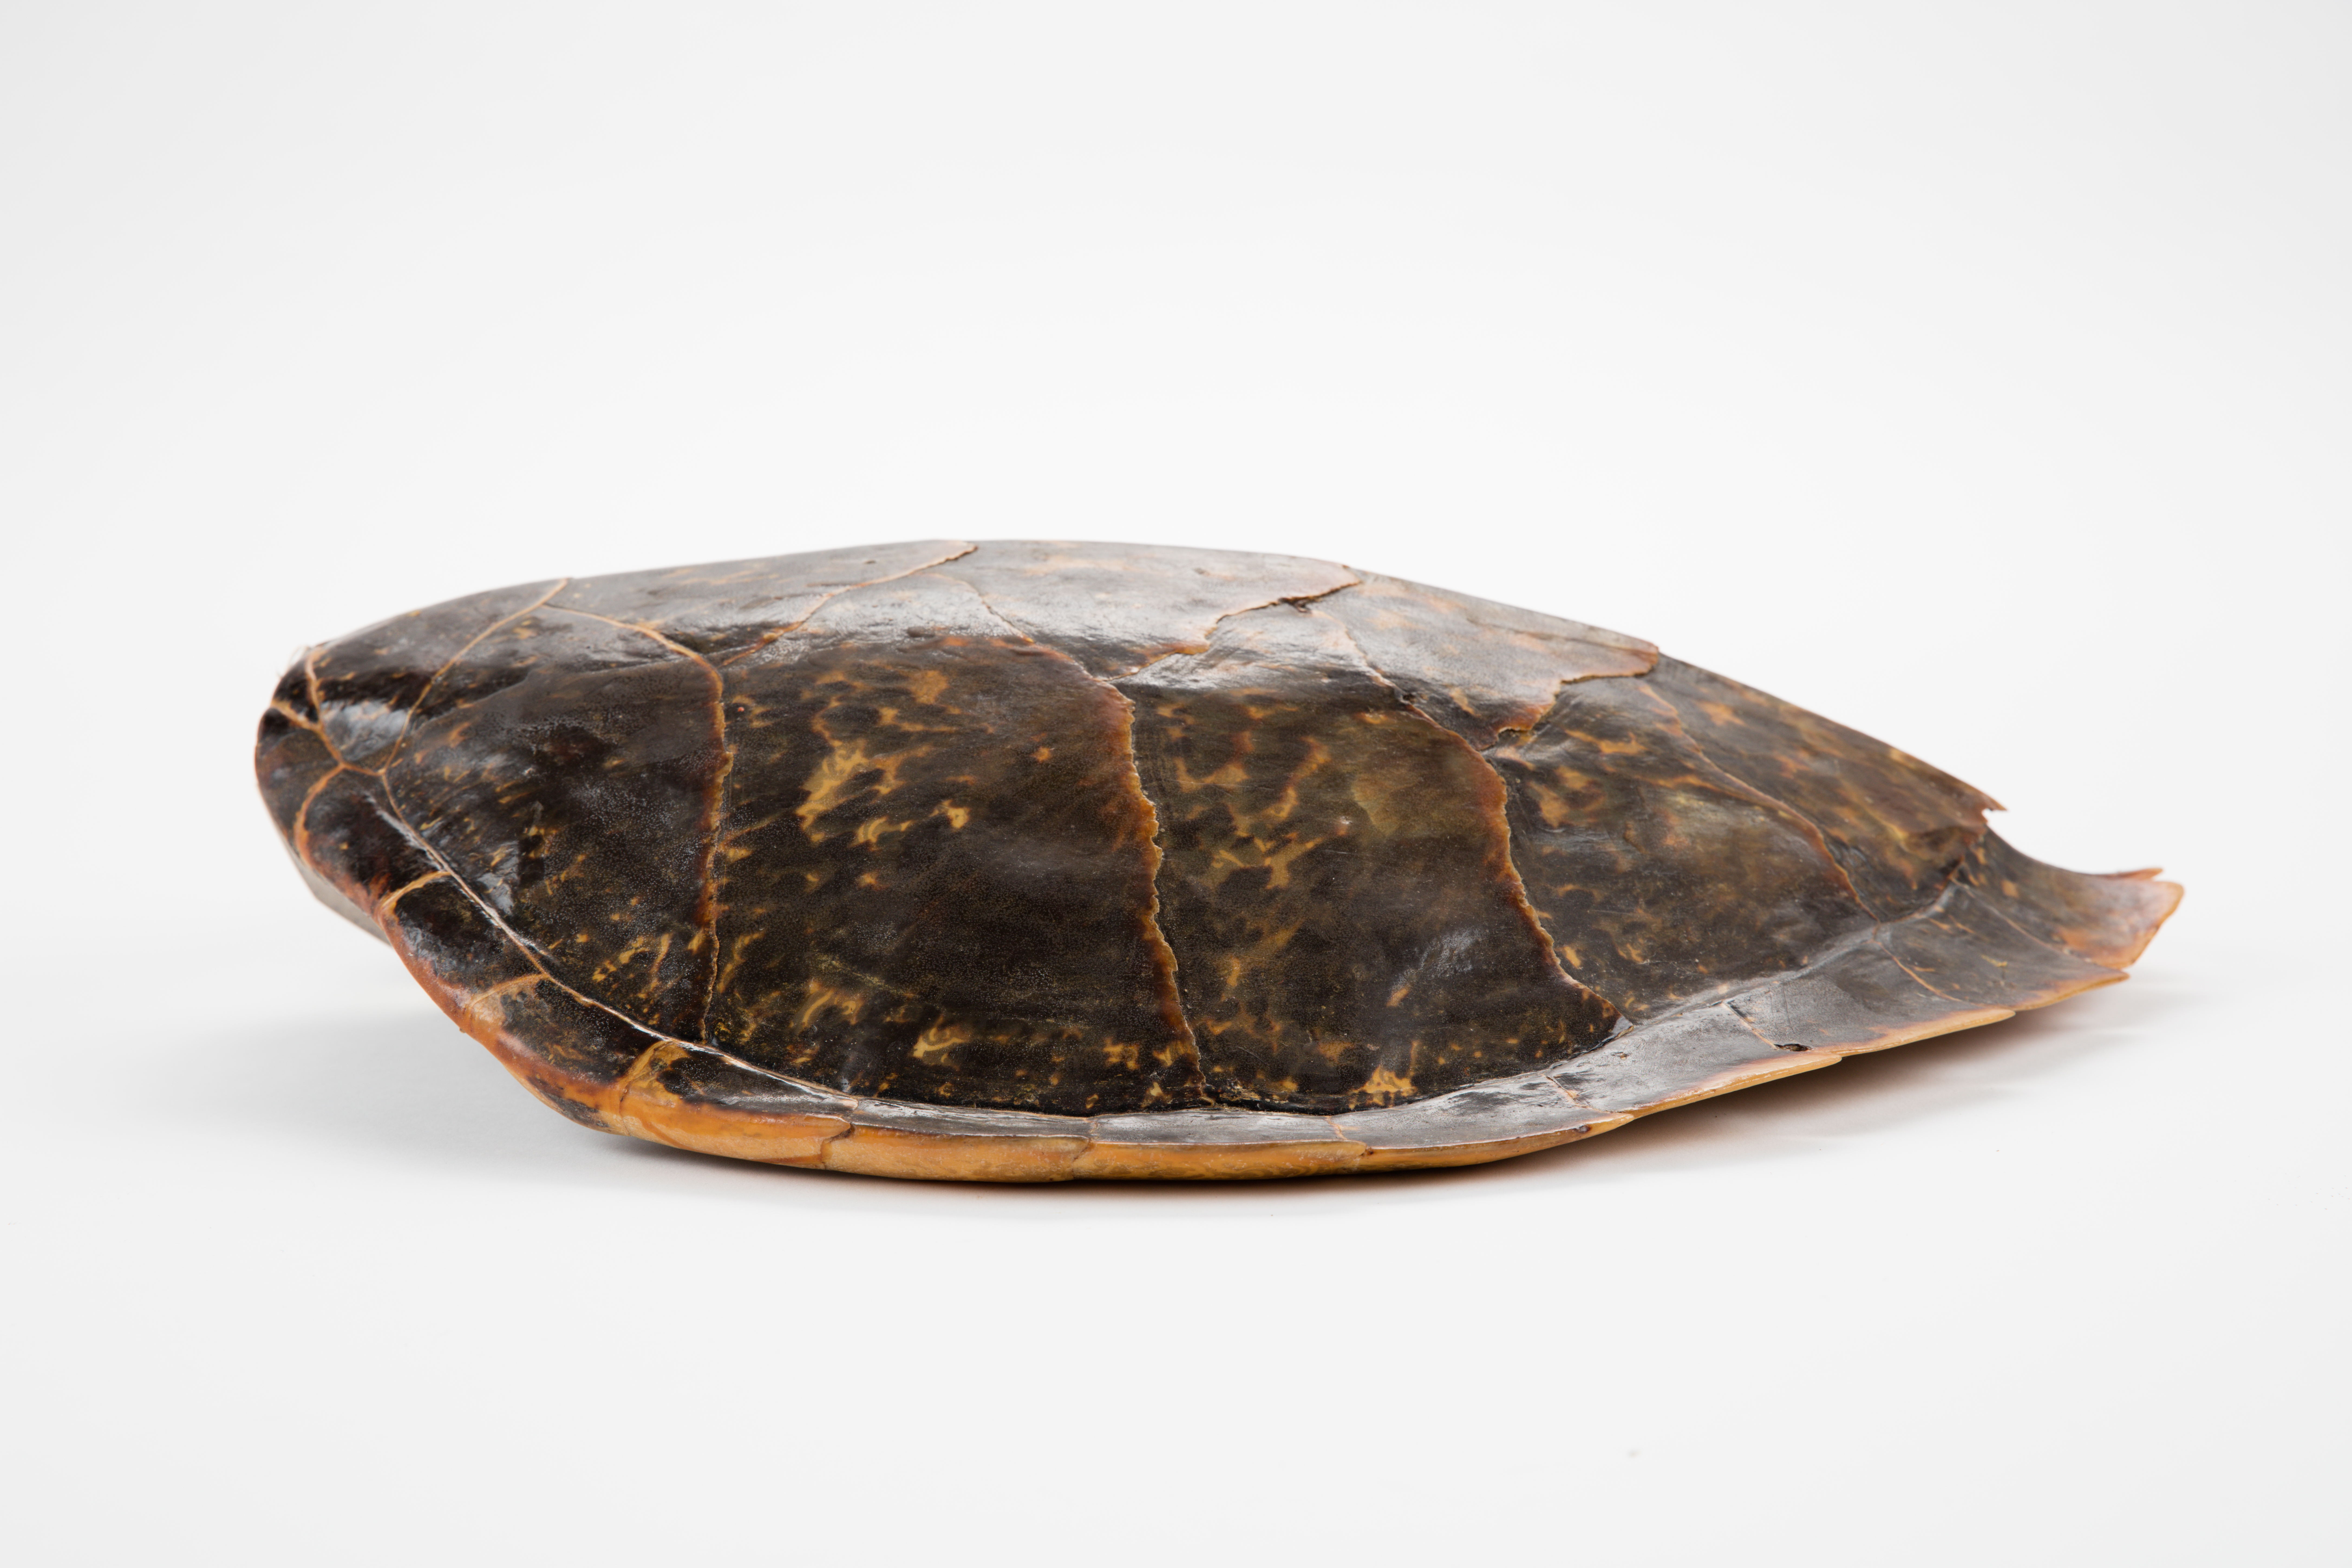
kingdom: Animalia
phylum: Chordata
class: Testudines
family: Cheloniidae
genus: Eretmochelys
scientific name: Eretmochelys imbricata
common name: Hawksbill turtle
